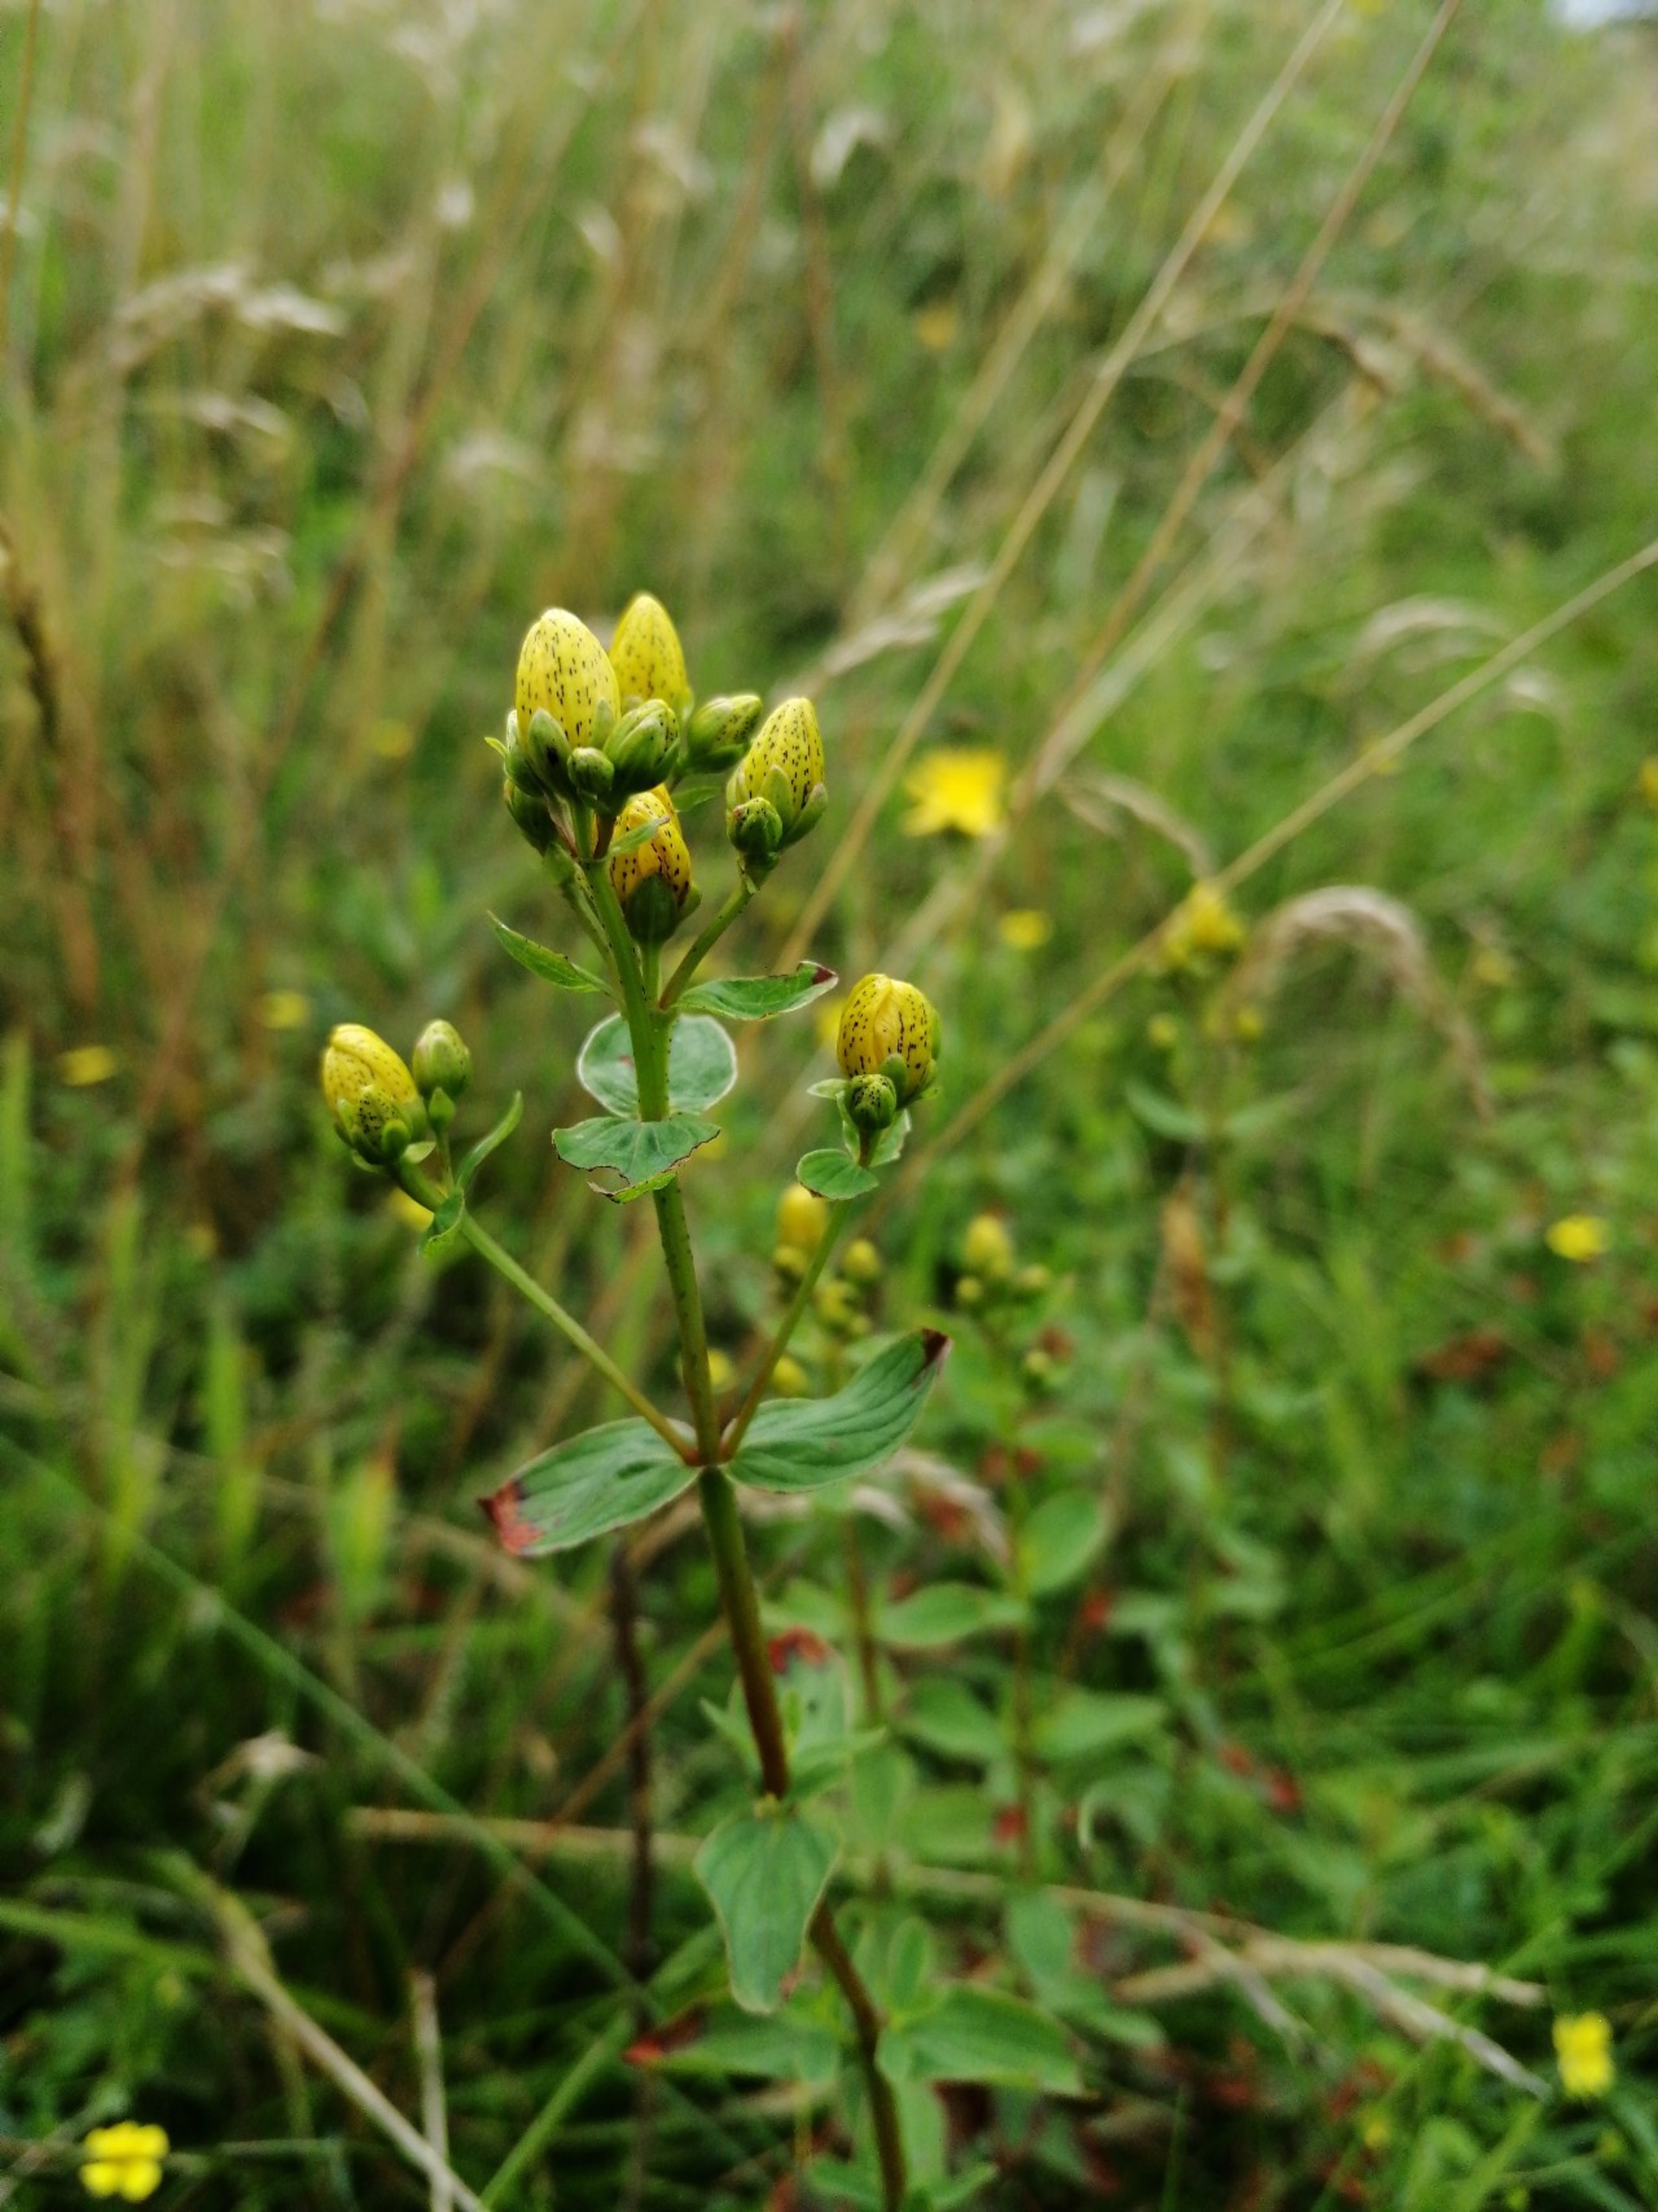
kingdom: Plantae
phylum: Tracheophyta
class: Magnoliopsida
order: Malpighiales
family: Hypericaceae
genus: Hypericum
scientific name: Hypericum maculatum
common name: Kantet perikon
